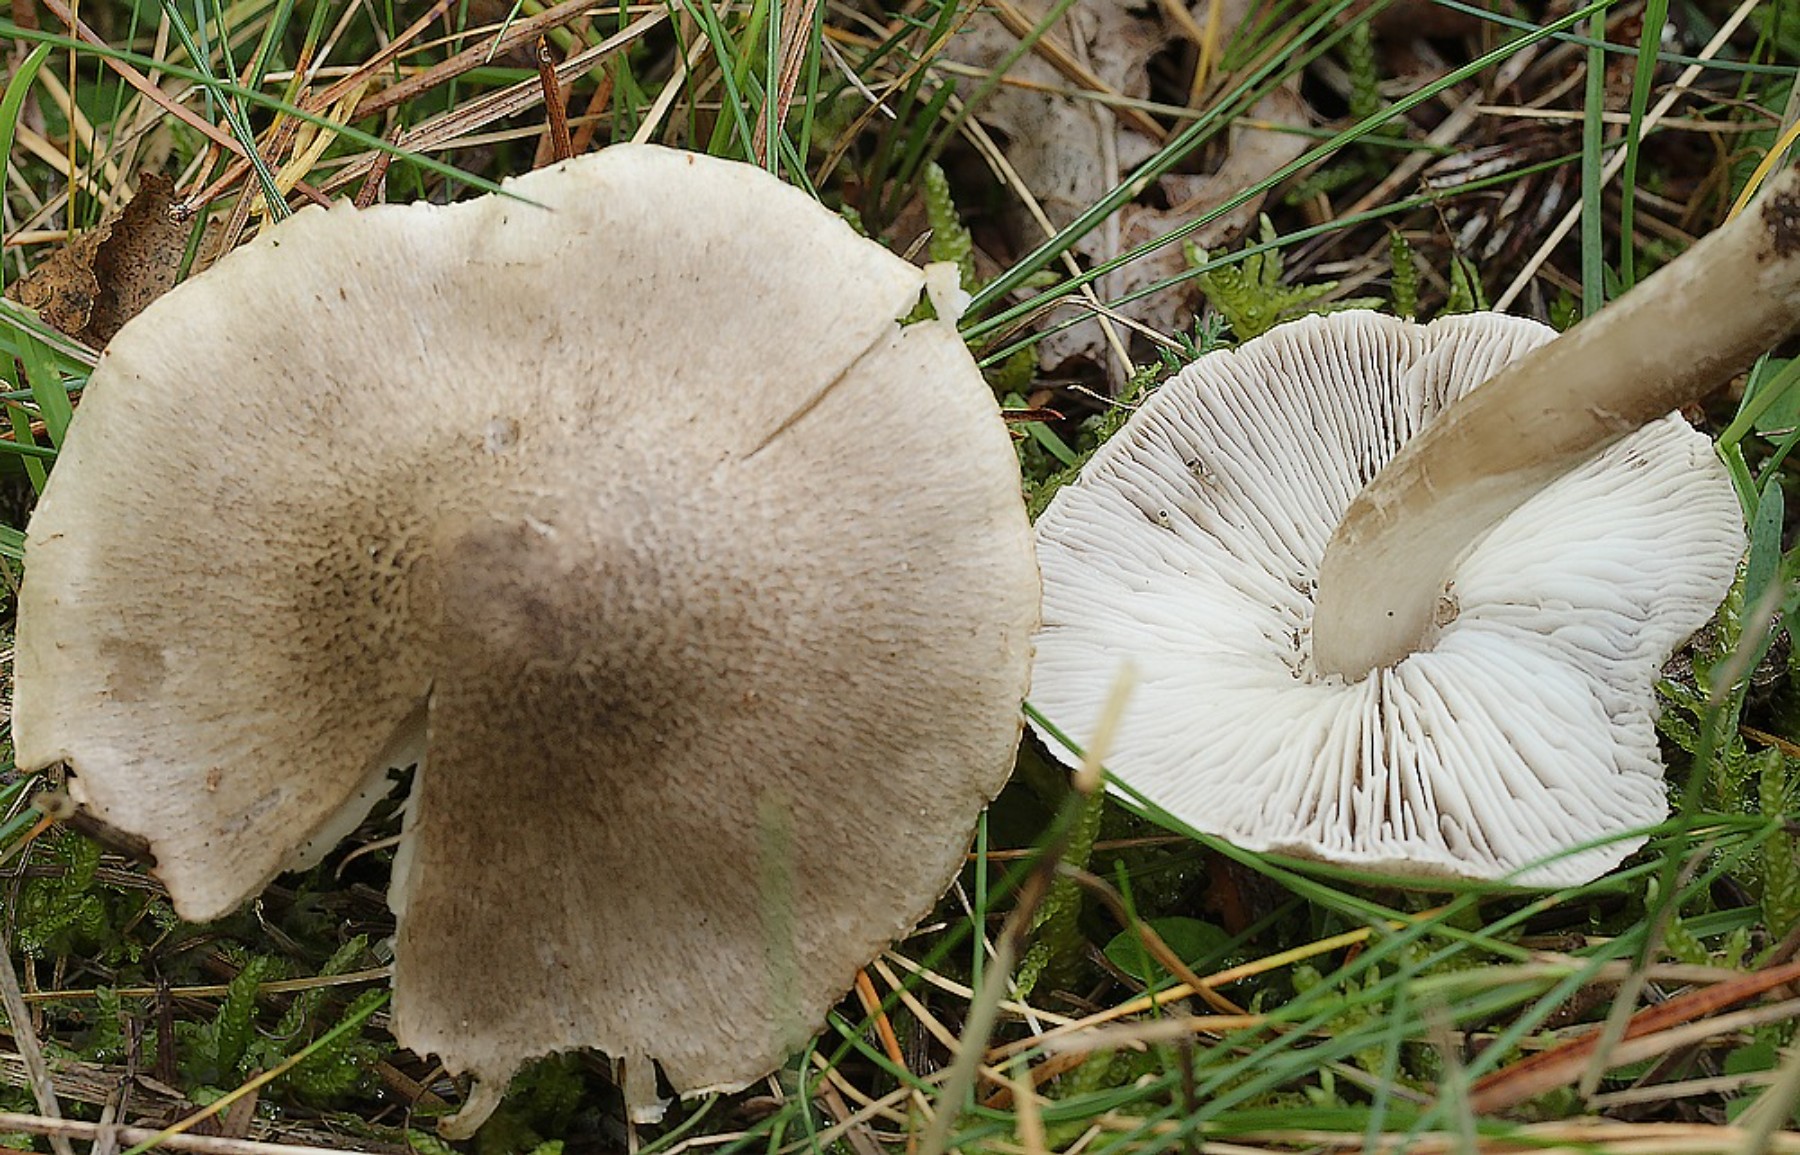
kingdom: Fungi
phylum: Basidiomycota
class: Agaricomycetes
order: Agaricales
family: Tricholomataceae
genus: Tricholoma
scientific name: Tricholoma argyraceum
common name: slør-ridderhat
